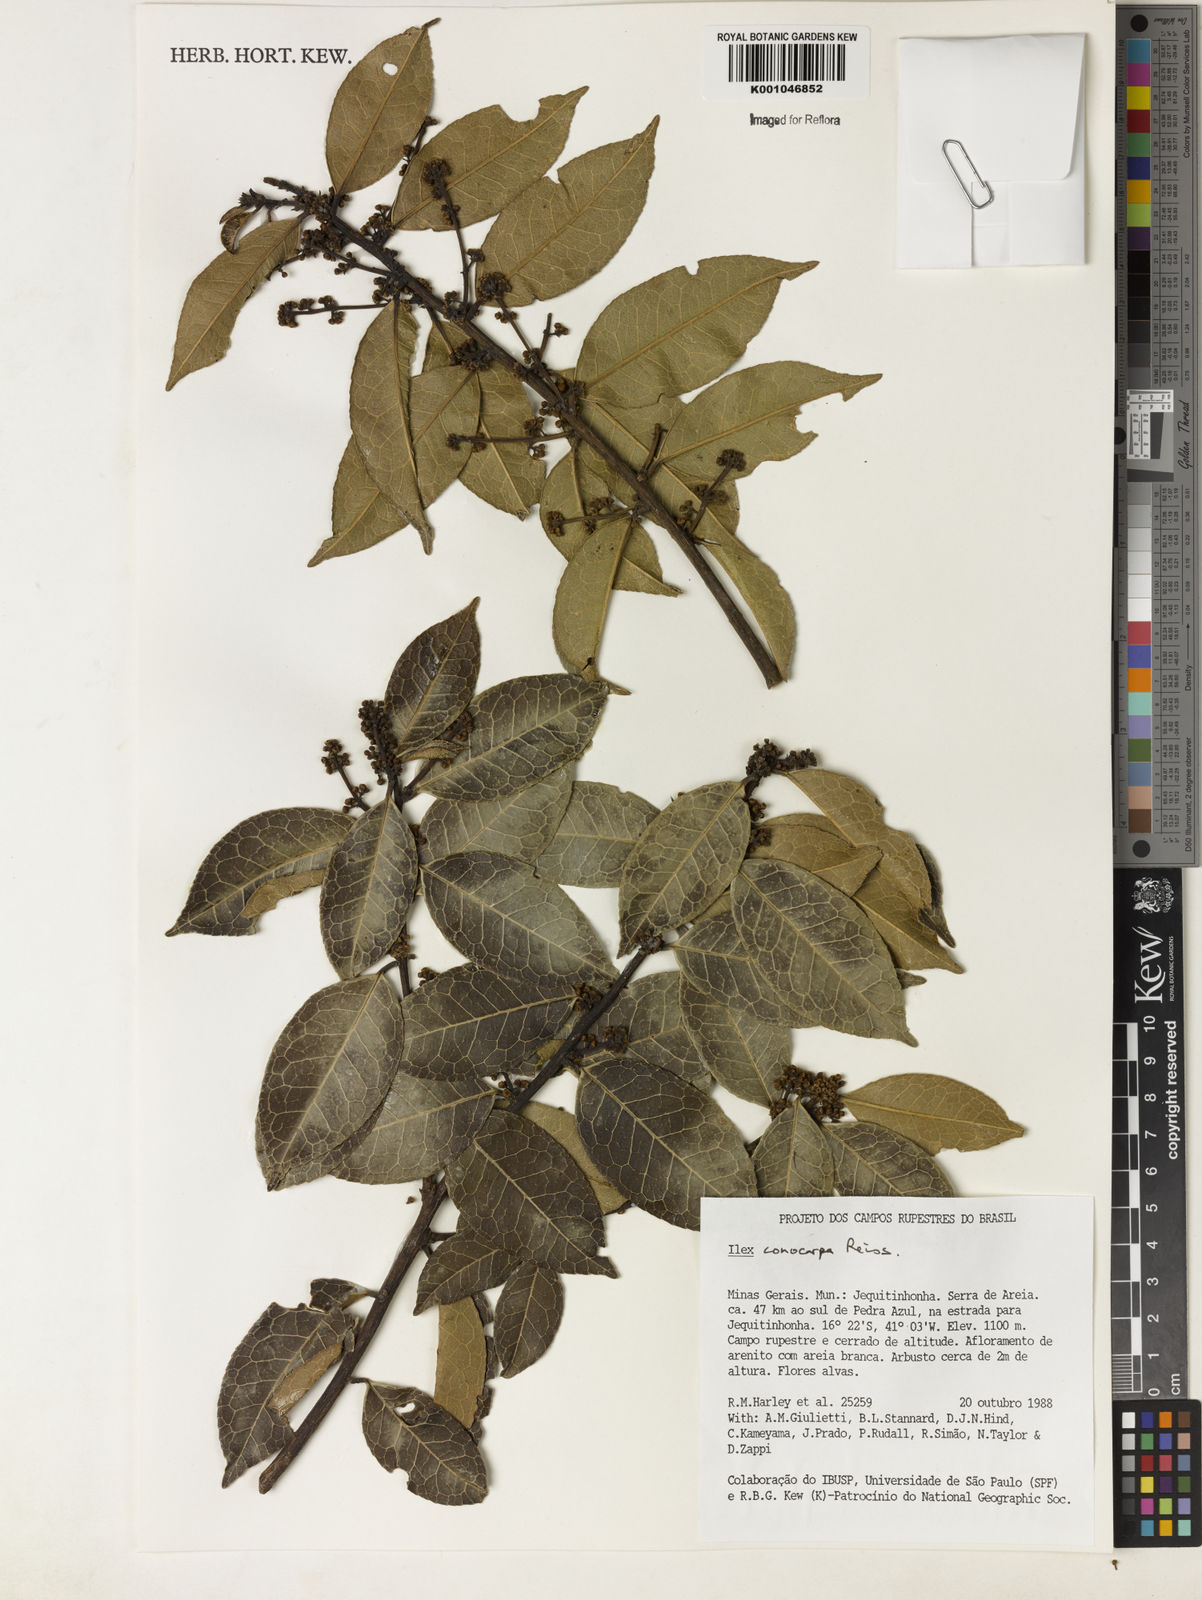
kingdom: Plantae
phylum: Tracheophyta
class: Magnoliopsida
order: Aquifoliales
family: Aquifoliaceae
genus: Ilex
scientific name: Ilex conocarpa
